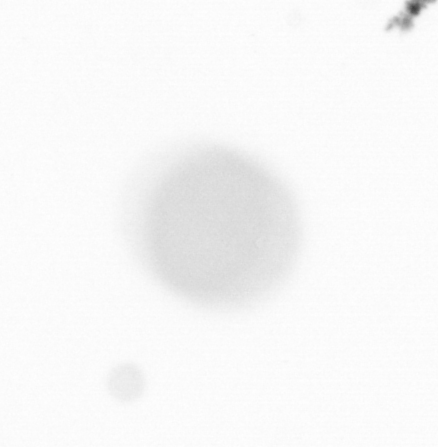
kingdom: Chromista
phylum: Ochrophyta
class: Bacillariophyceae
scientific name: Bacillariophyceae
